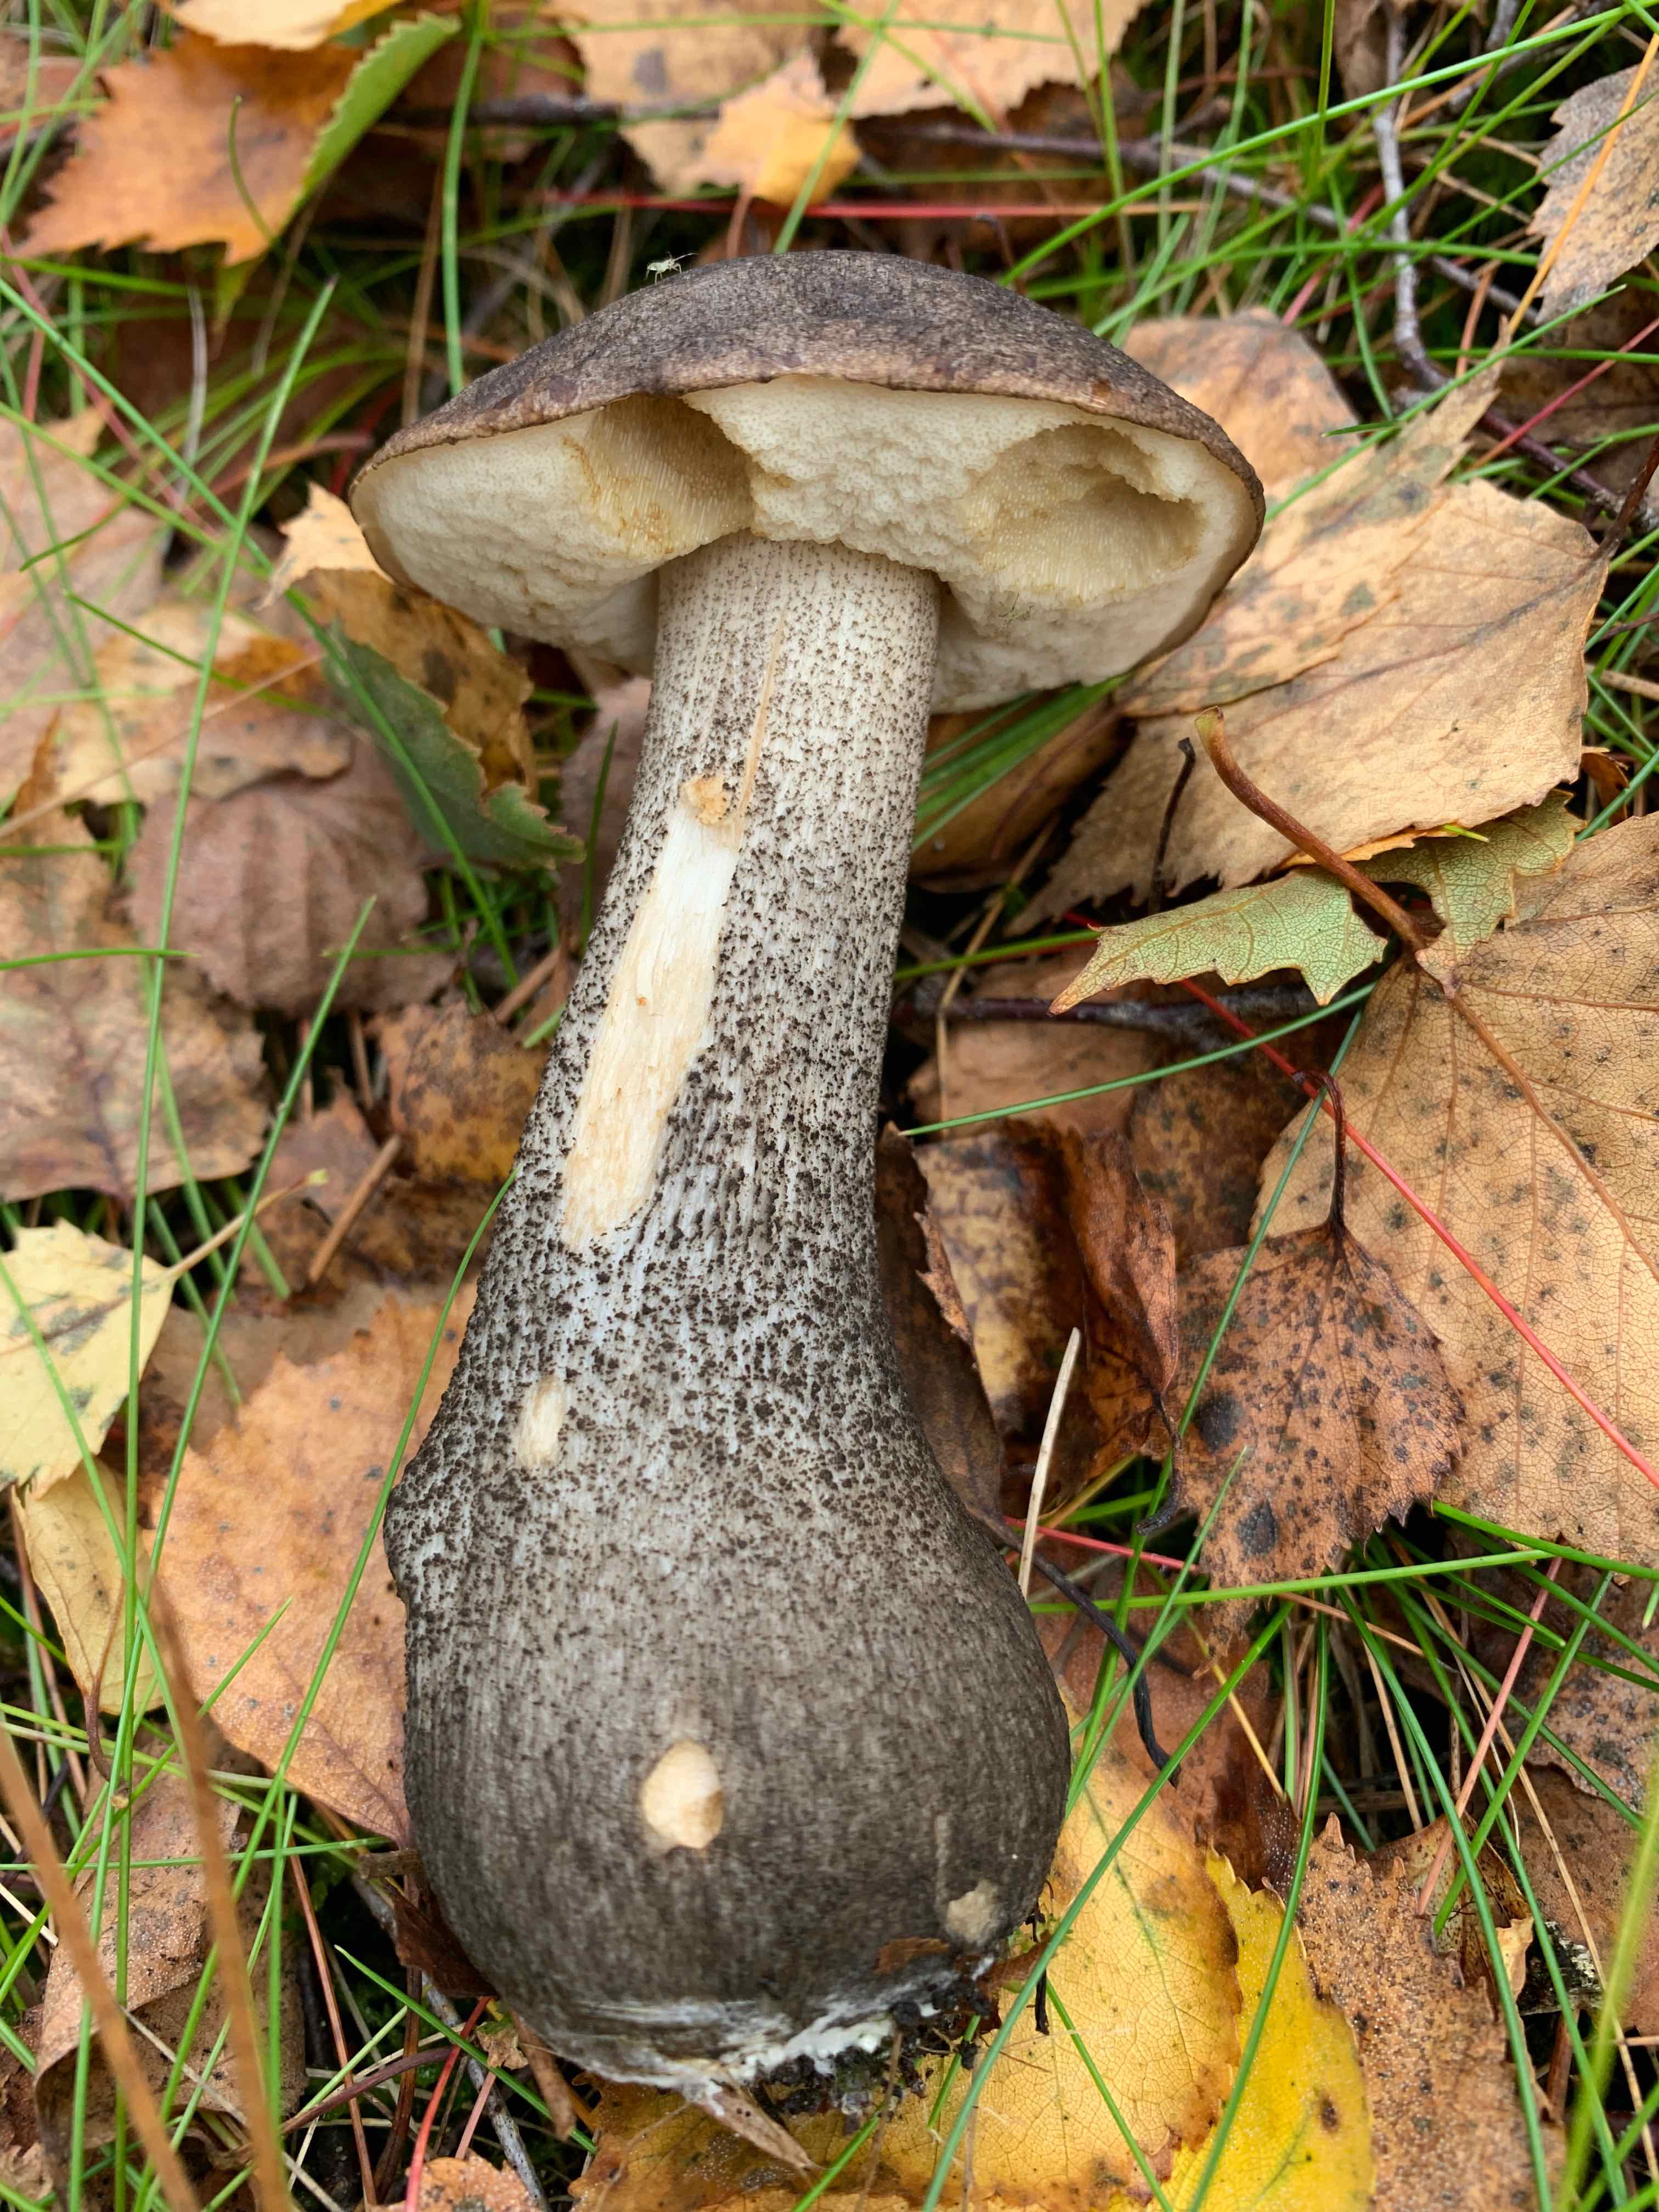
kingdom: Fungi
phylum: Basidiomycota
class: Agaricomycetes
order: Boletales
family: Boletaceae
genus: Leccinum
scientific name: Leccinum
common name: skælrørhat
